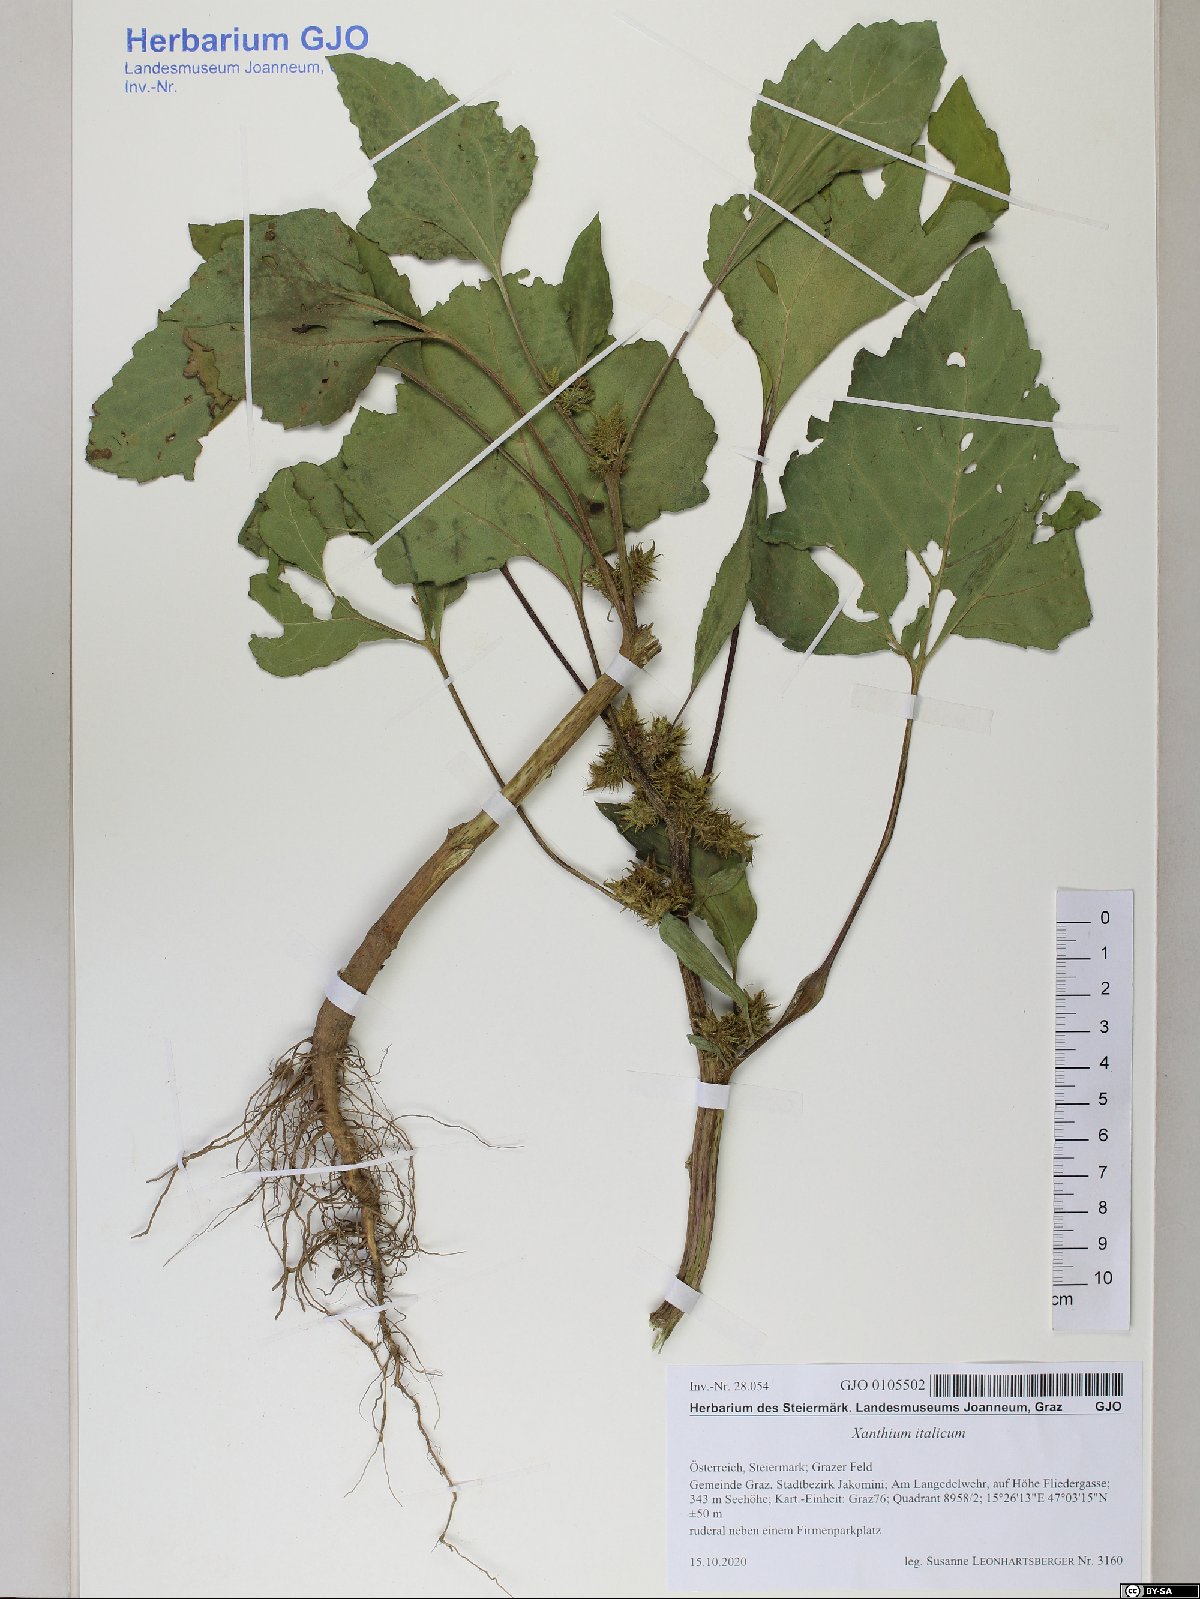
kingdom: Plantae
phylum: Tracheophyta
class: Magnoliopsida
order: Asterales
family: Asteraceae
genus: Xanthium
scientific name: Xanthium orientale
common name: Californian burr
